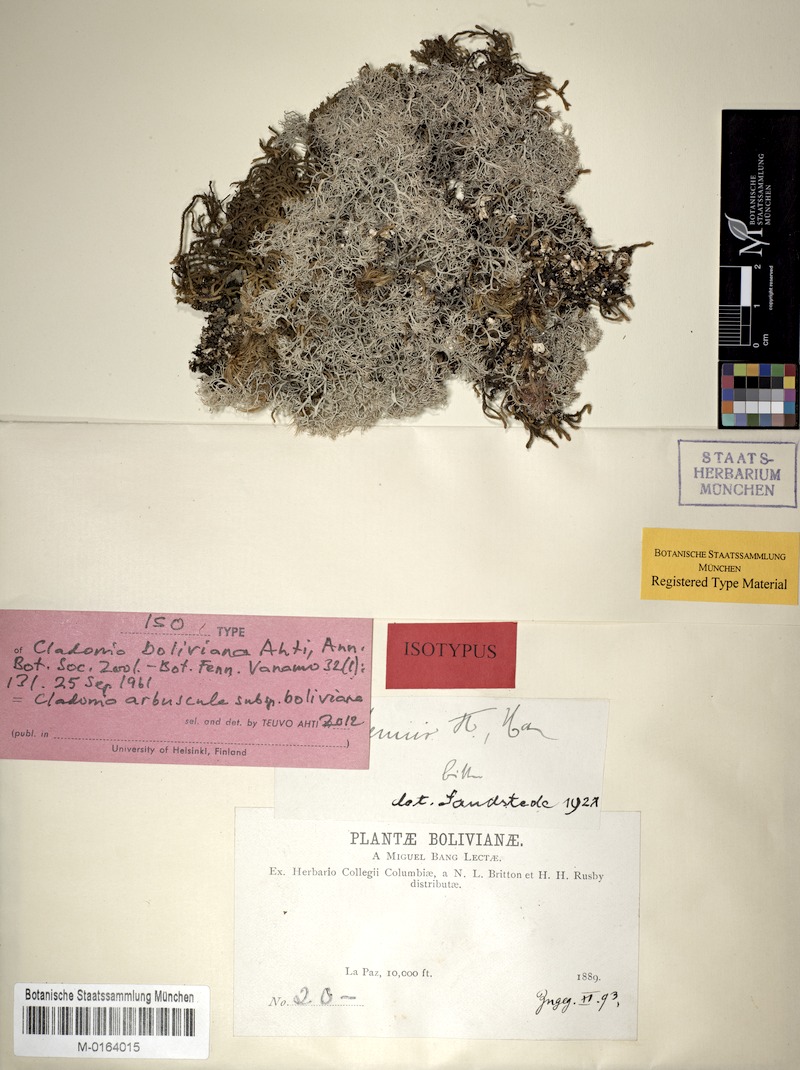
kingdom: Fungi
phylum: Ascomycota
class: Lecanoromycetes
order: Lecanorales
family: Cladoniaceae
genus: Cladonia
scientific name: Cladonia arbuscula
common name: Reindeer lichen
